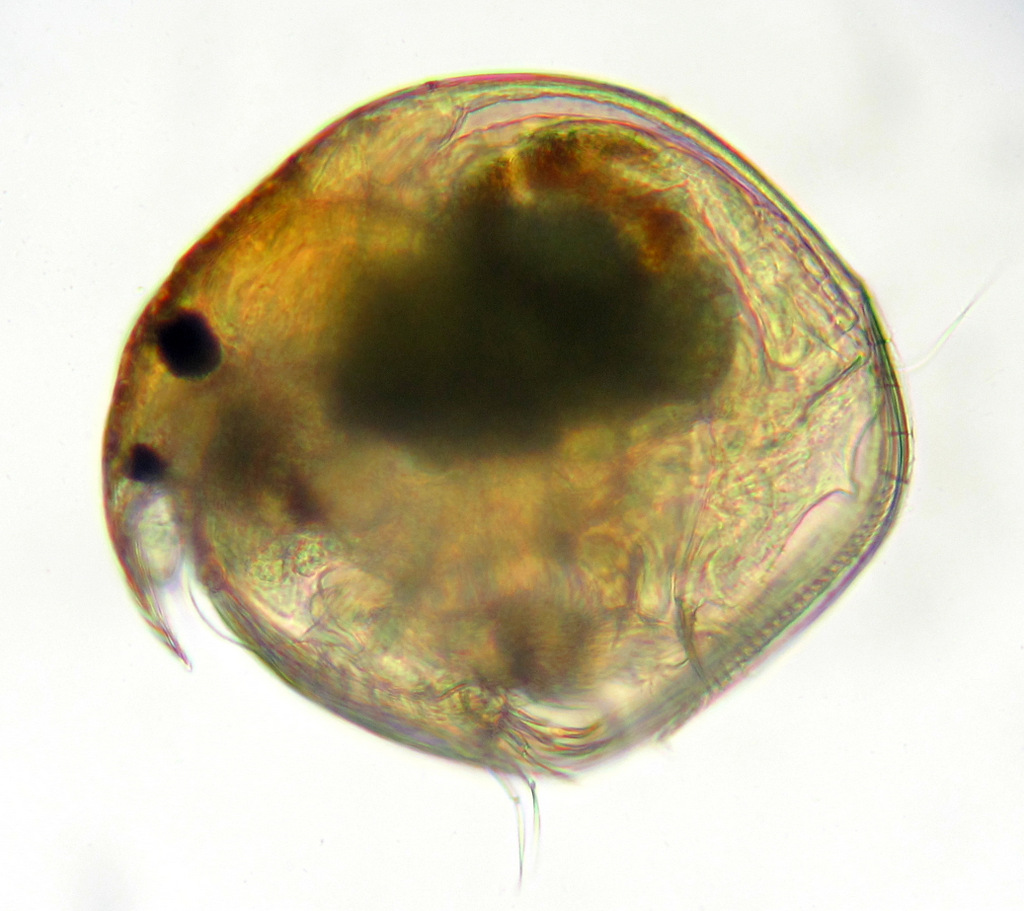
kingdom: Animalia
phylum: Arthropoda
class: Branchiopoda
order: Diplostraca
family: Chydoridae
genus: Chydorus
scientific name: Chydorus sphaericus
